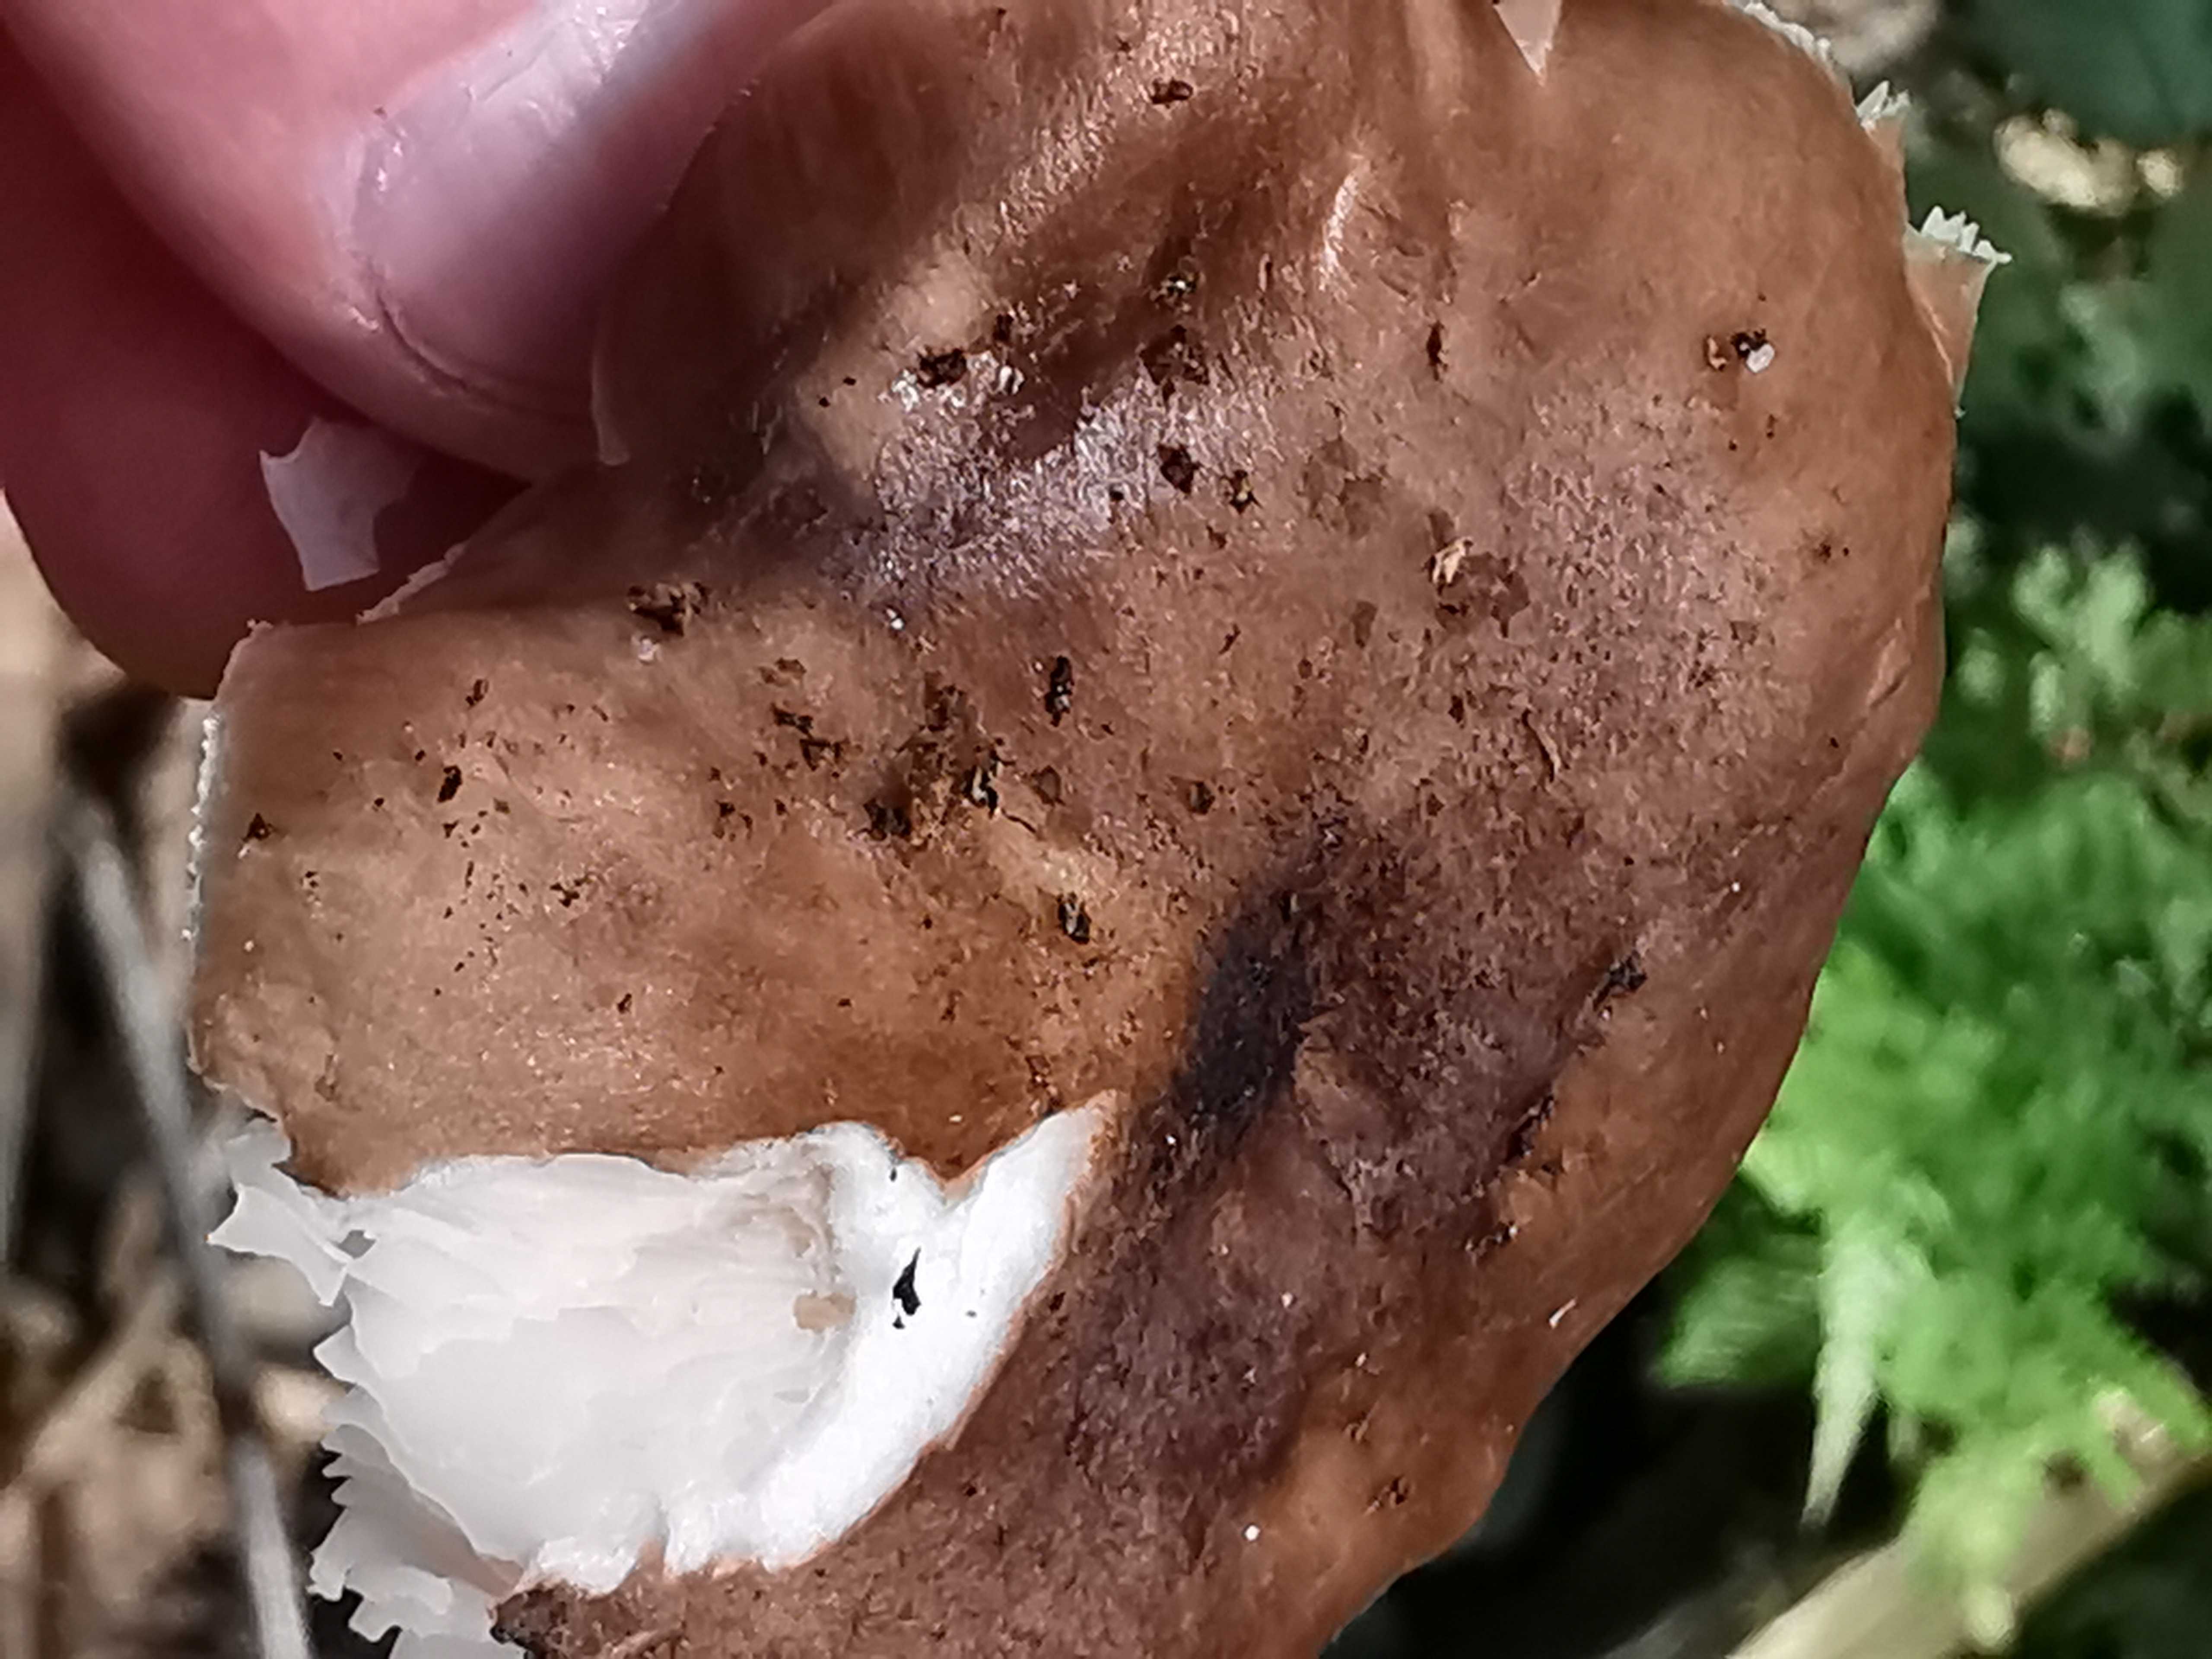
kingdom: Fungi
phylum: Basidiomycota
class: Agaricomycetes
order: Agaricales
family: Pluteaceae
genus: Pluteus
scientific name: Pluteus cervinus
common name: sodfarvet skærmhat
